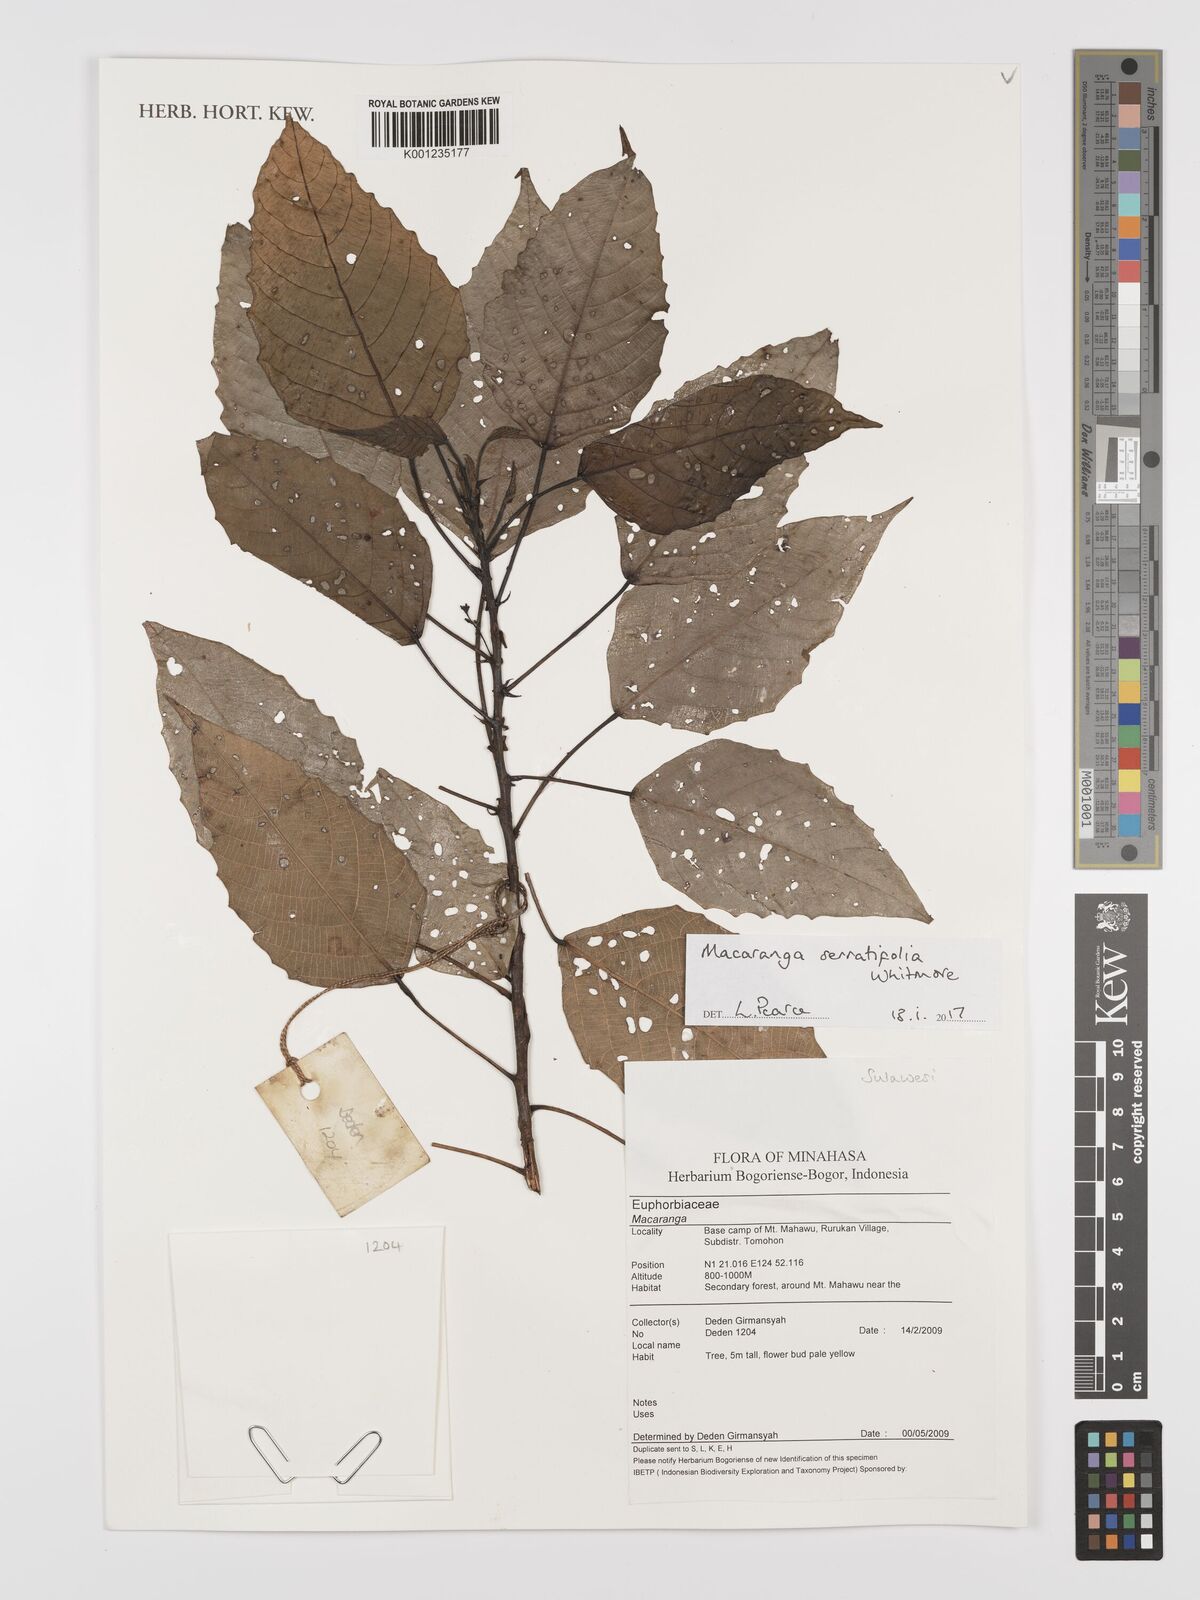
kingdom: Plantae
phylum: Tracheophyta
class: Magnoliopsida
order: Malpighiales
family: Euphorbiaceae
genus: Macaranga
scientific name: Macaranga serratifolia
